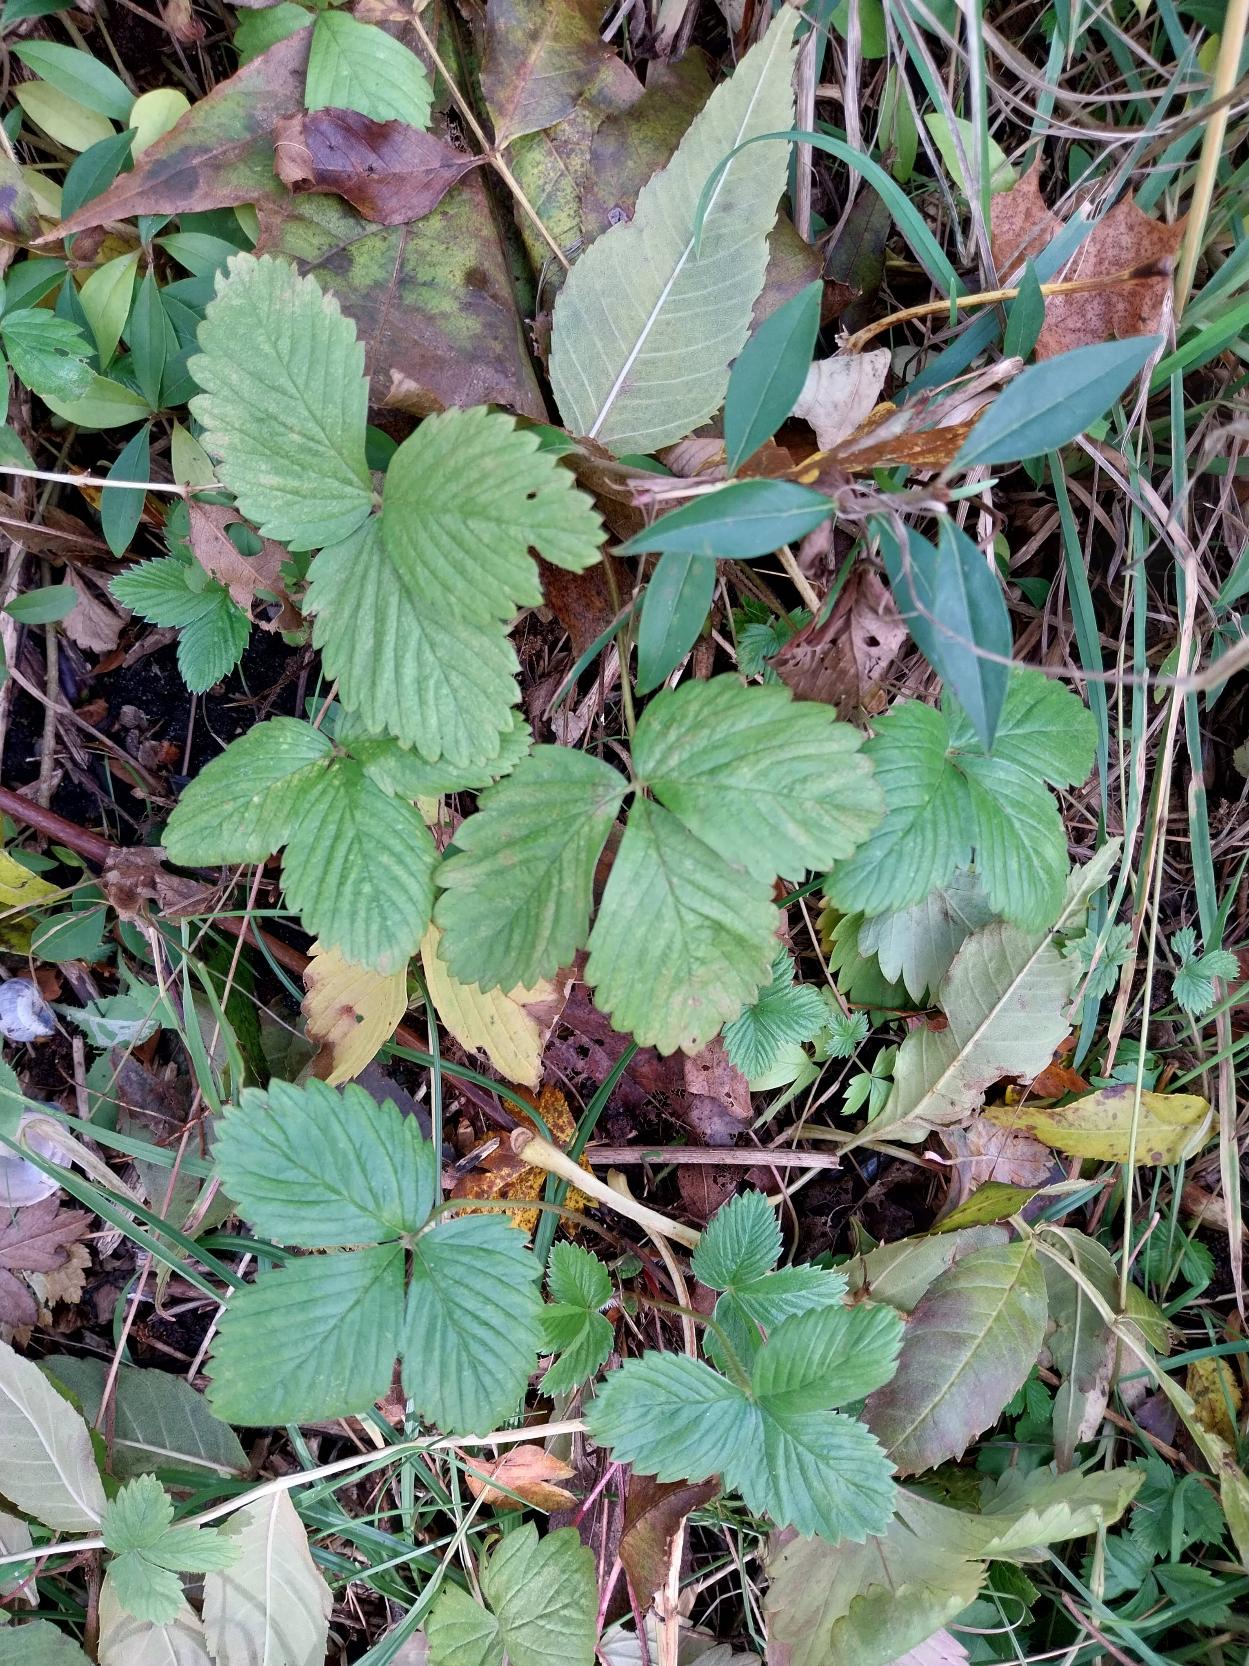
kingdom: Plantae
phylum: Tracheophyta
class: Magnoliopsida
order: Rosales
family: Rosaceae
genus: Fragaria
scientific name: Fragaria vesca
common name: Skov-jordbær
